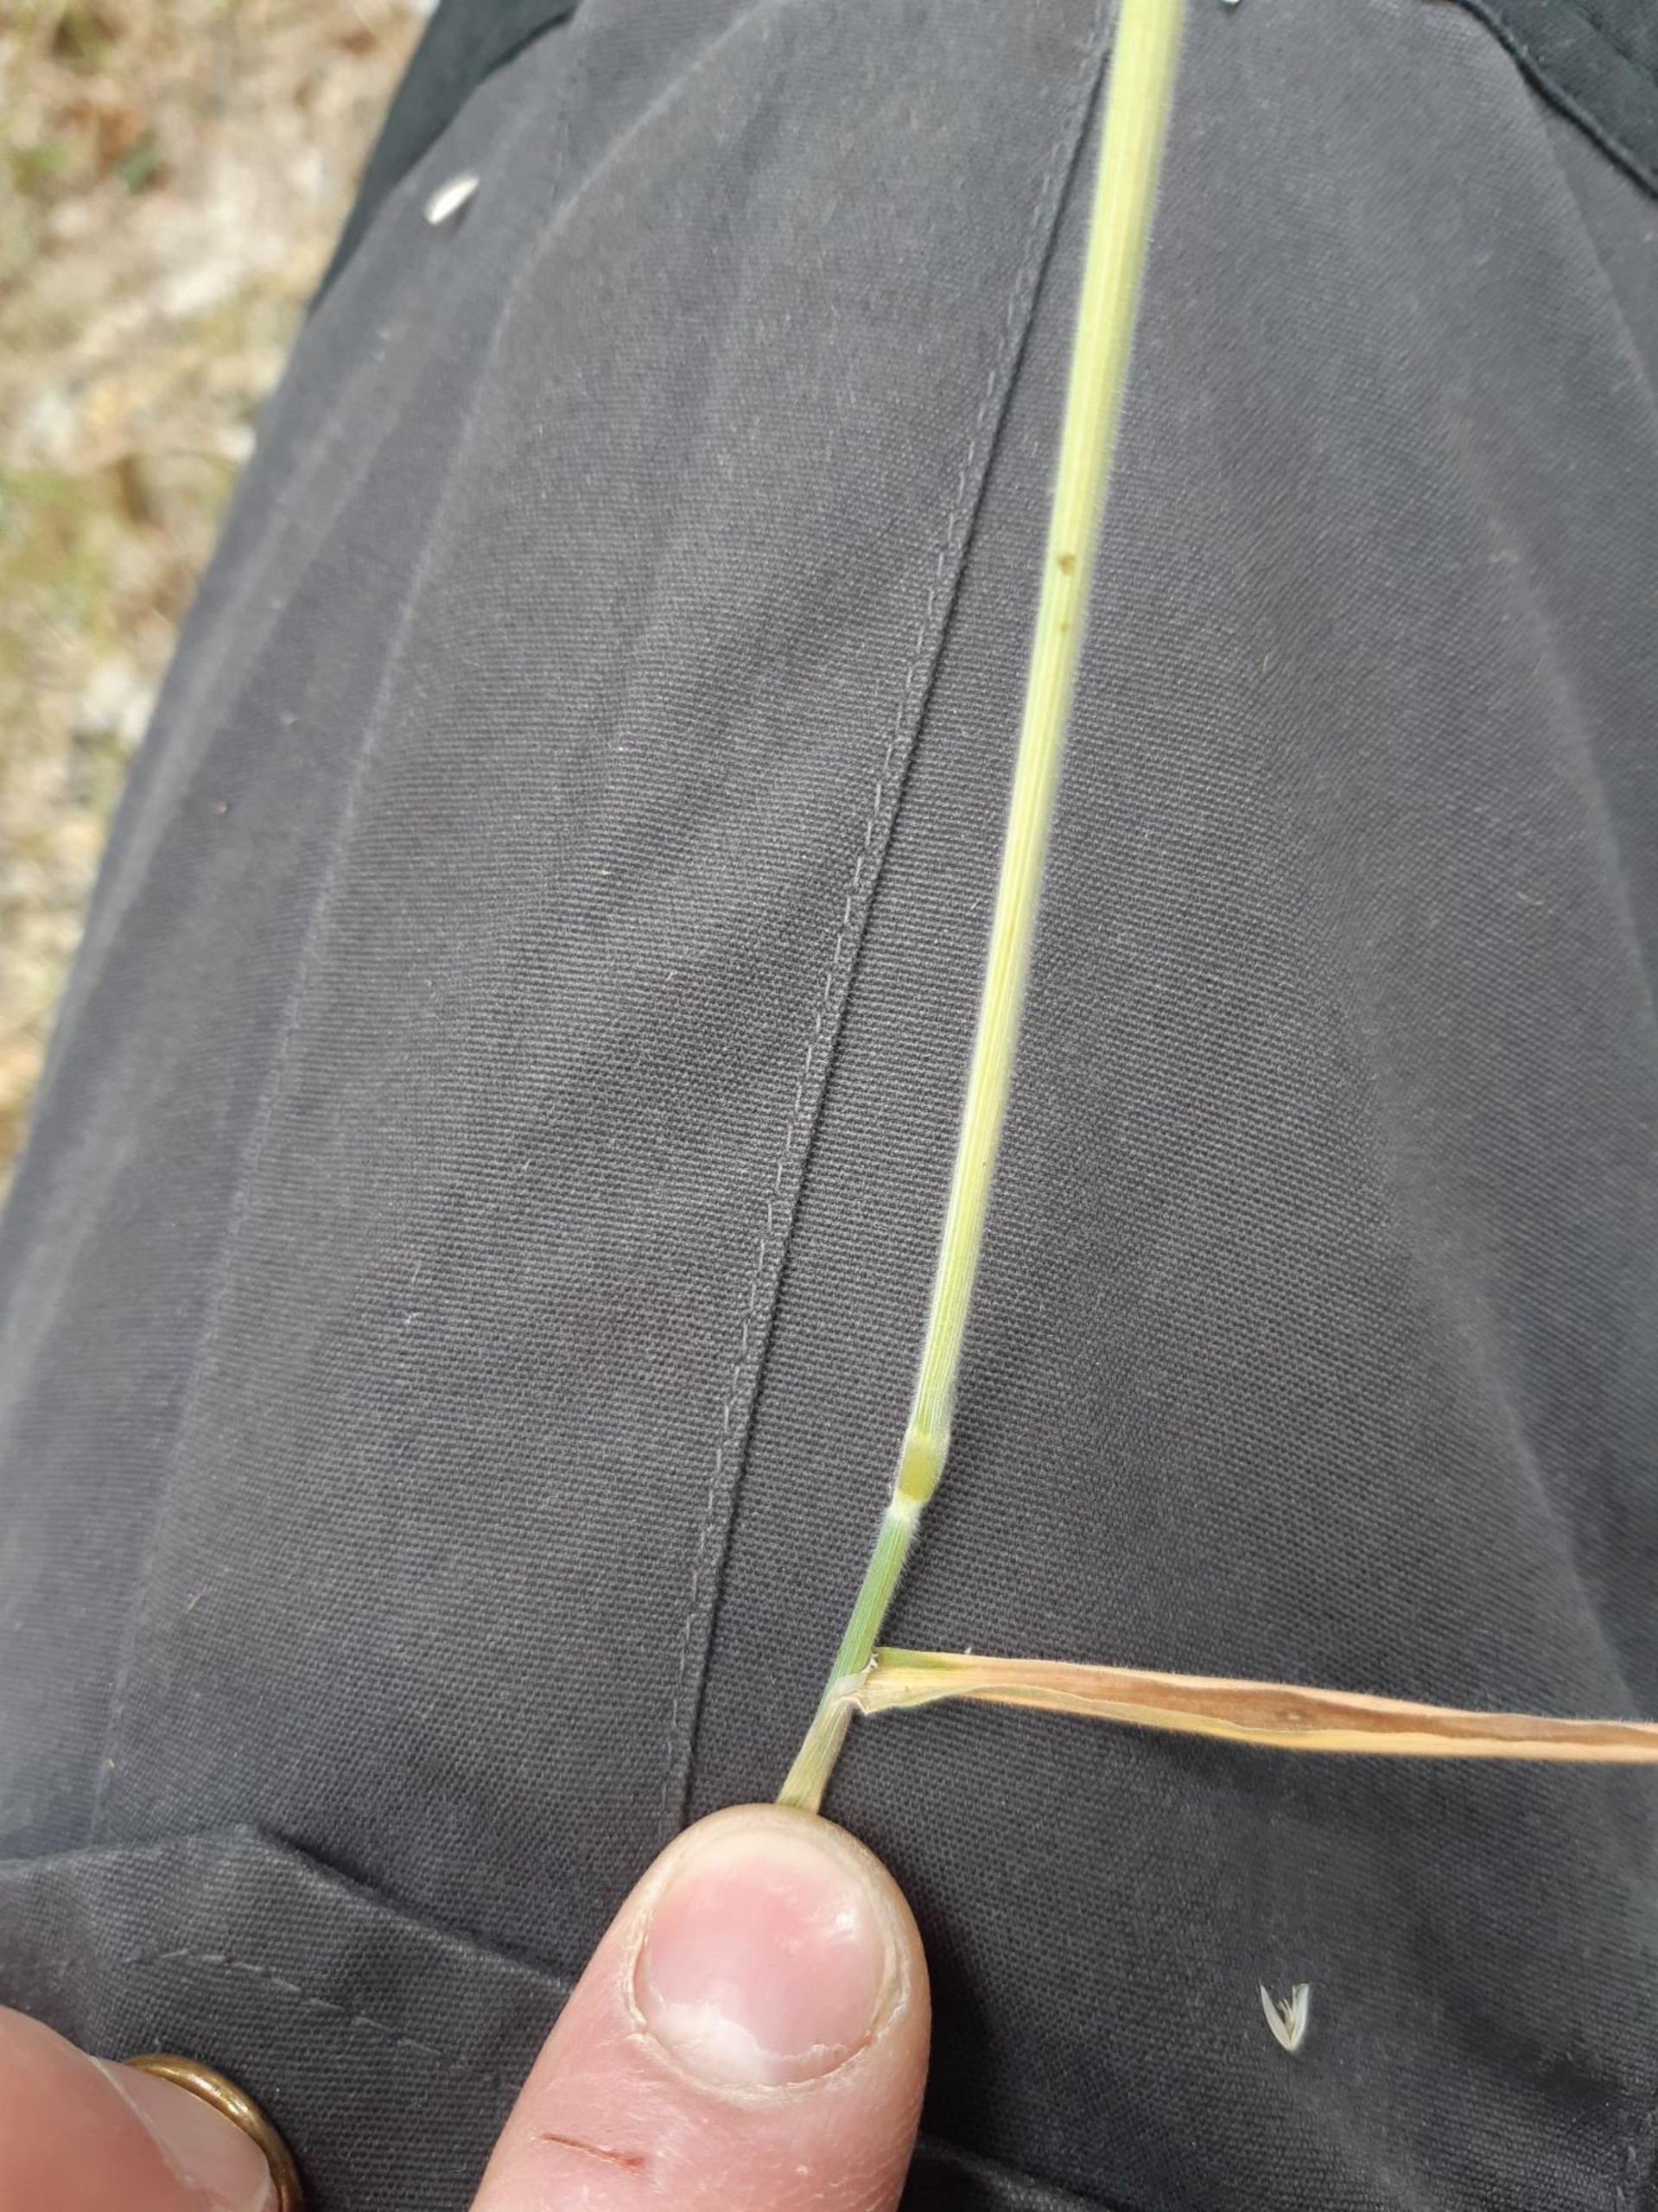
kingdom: Plantae
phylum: Tracheophyta
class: Liliopsida
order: Poales
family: Poaceae
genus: Holcus
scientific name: Holcus lanatus
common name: Fløjlsgræs
